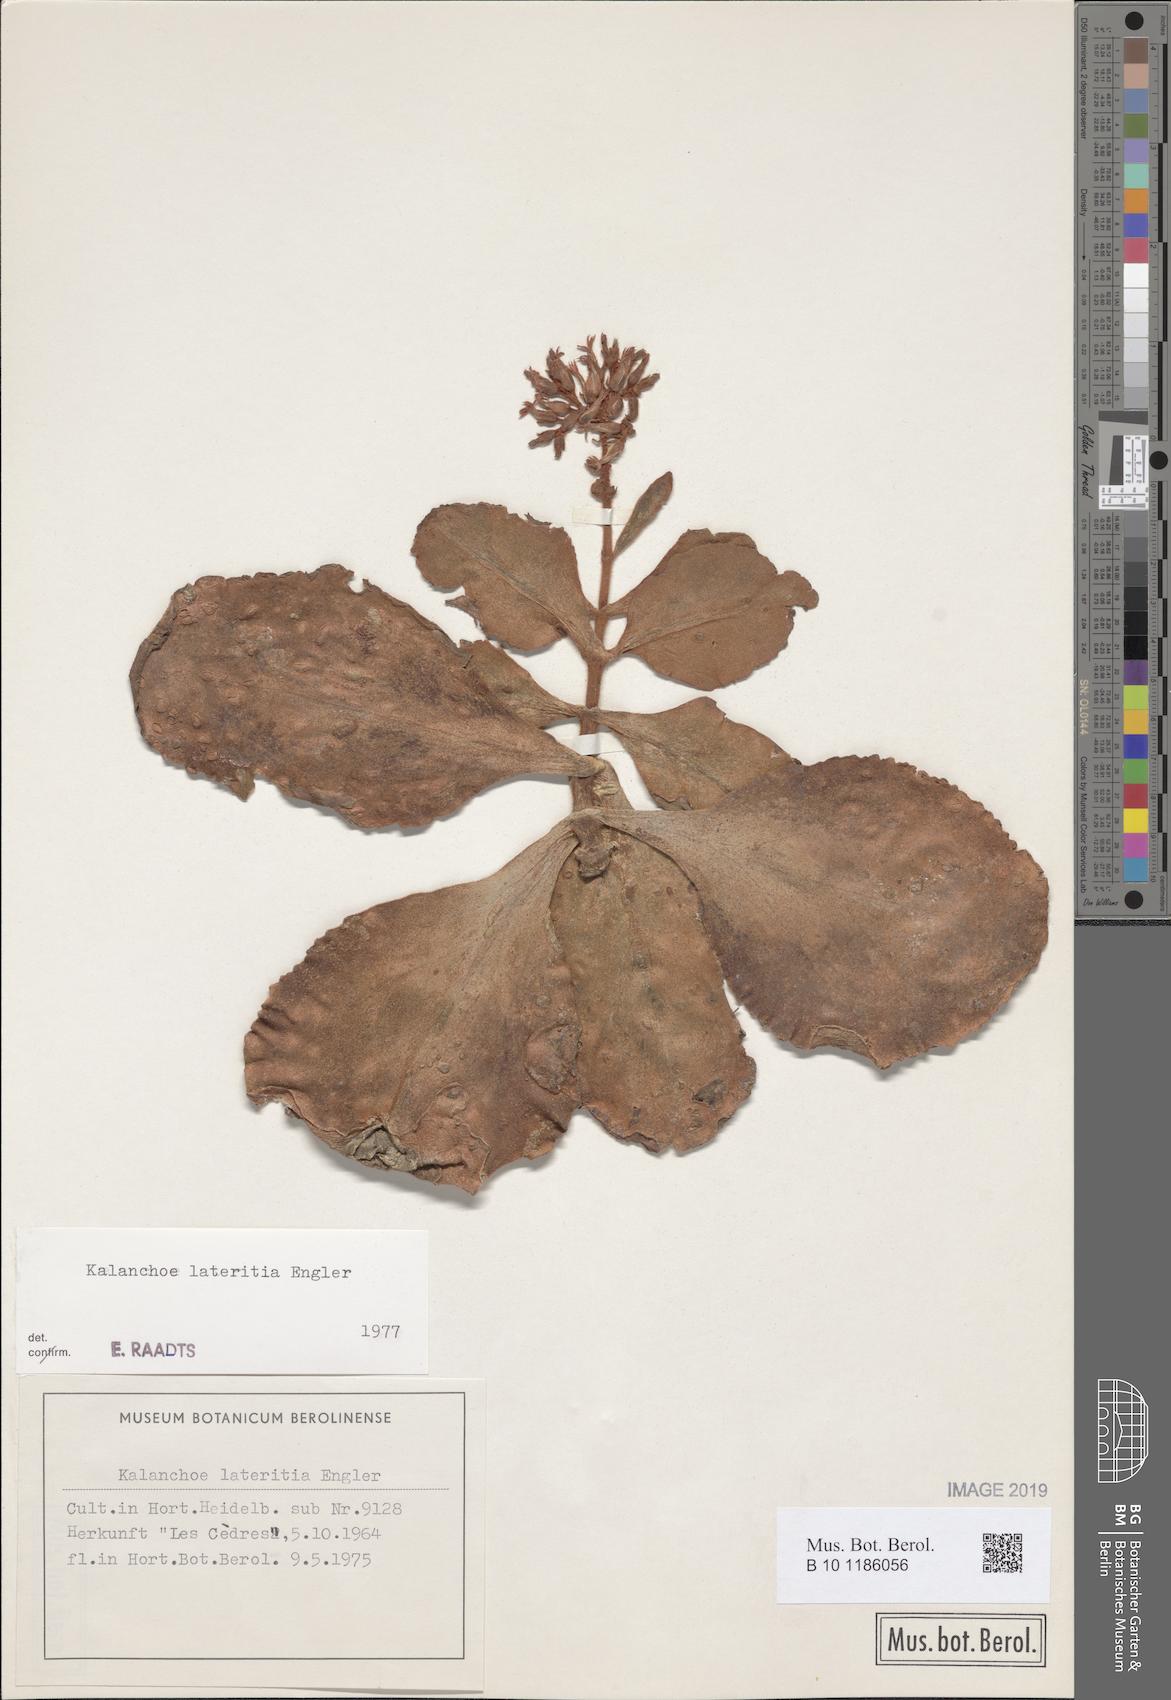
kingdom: Plantae
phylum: Tracheophyta
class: Magnoliopsida
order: Saxifragales
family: Crassulaceae
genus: Kalanchoe
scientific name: Kalanchoe lateritia
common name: Kalanchoe
